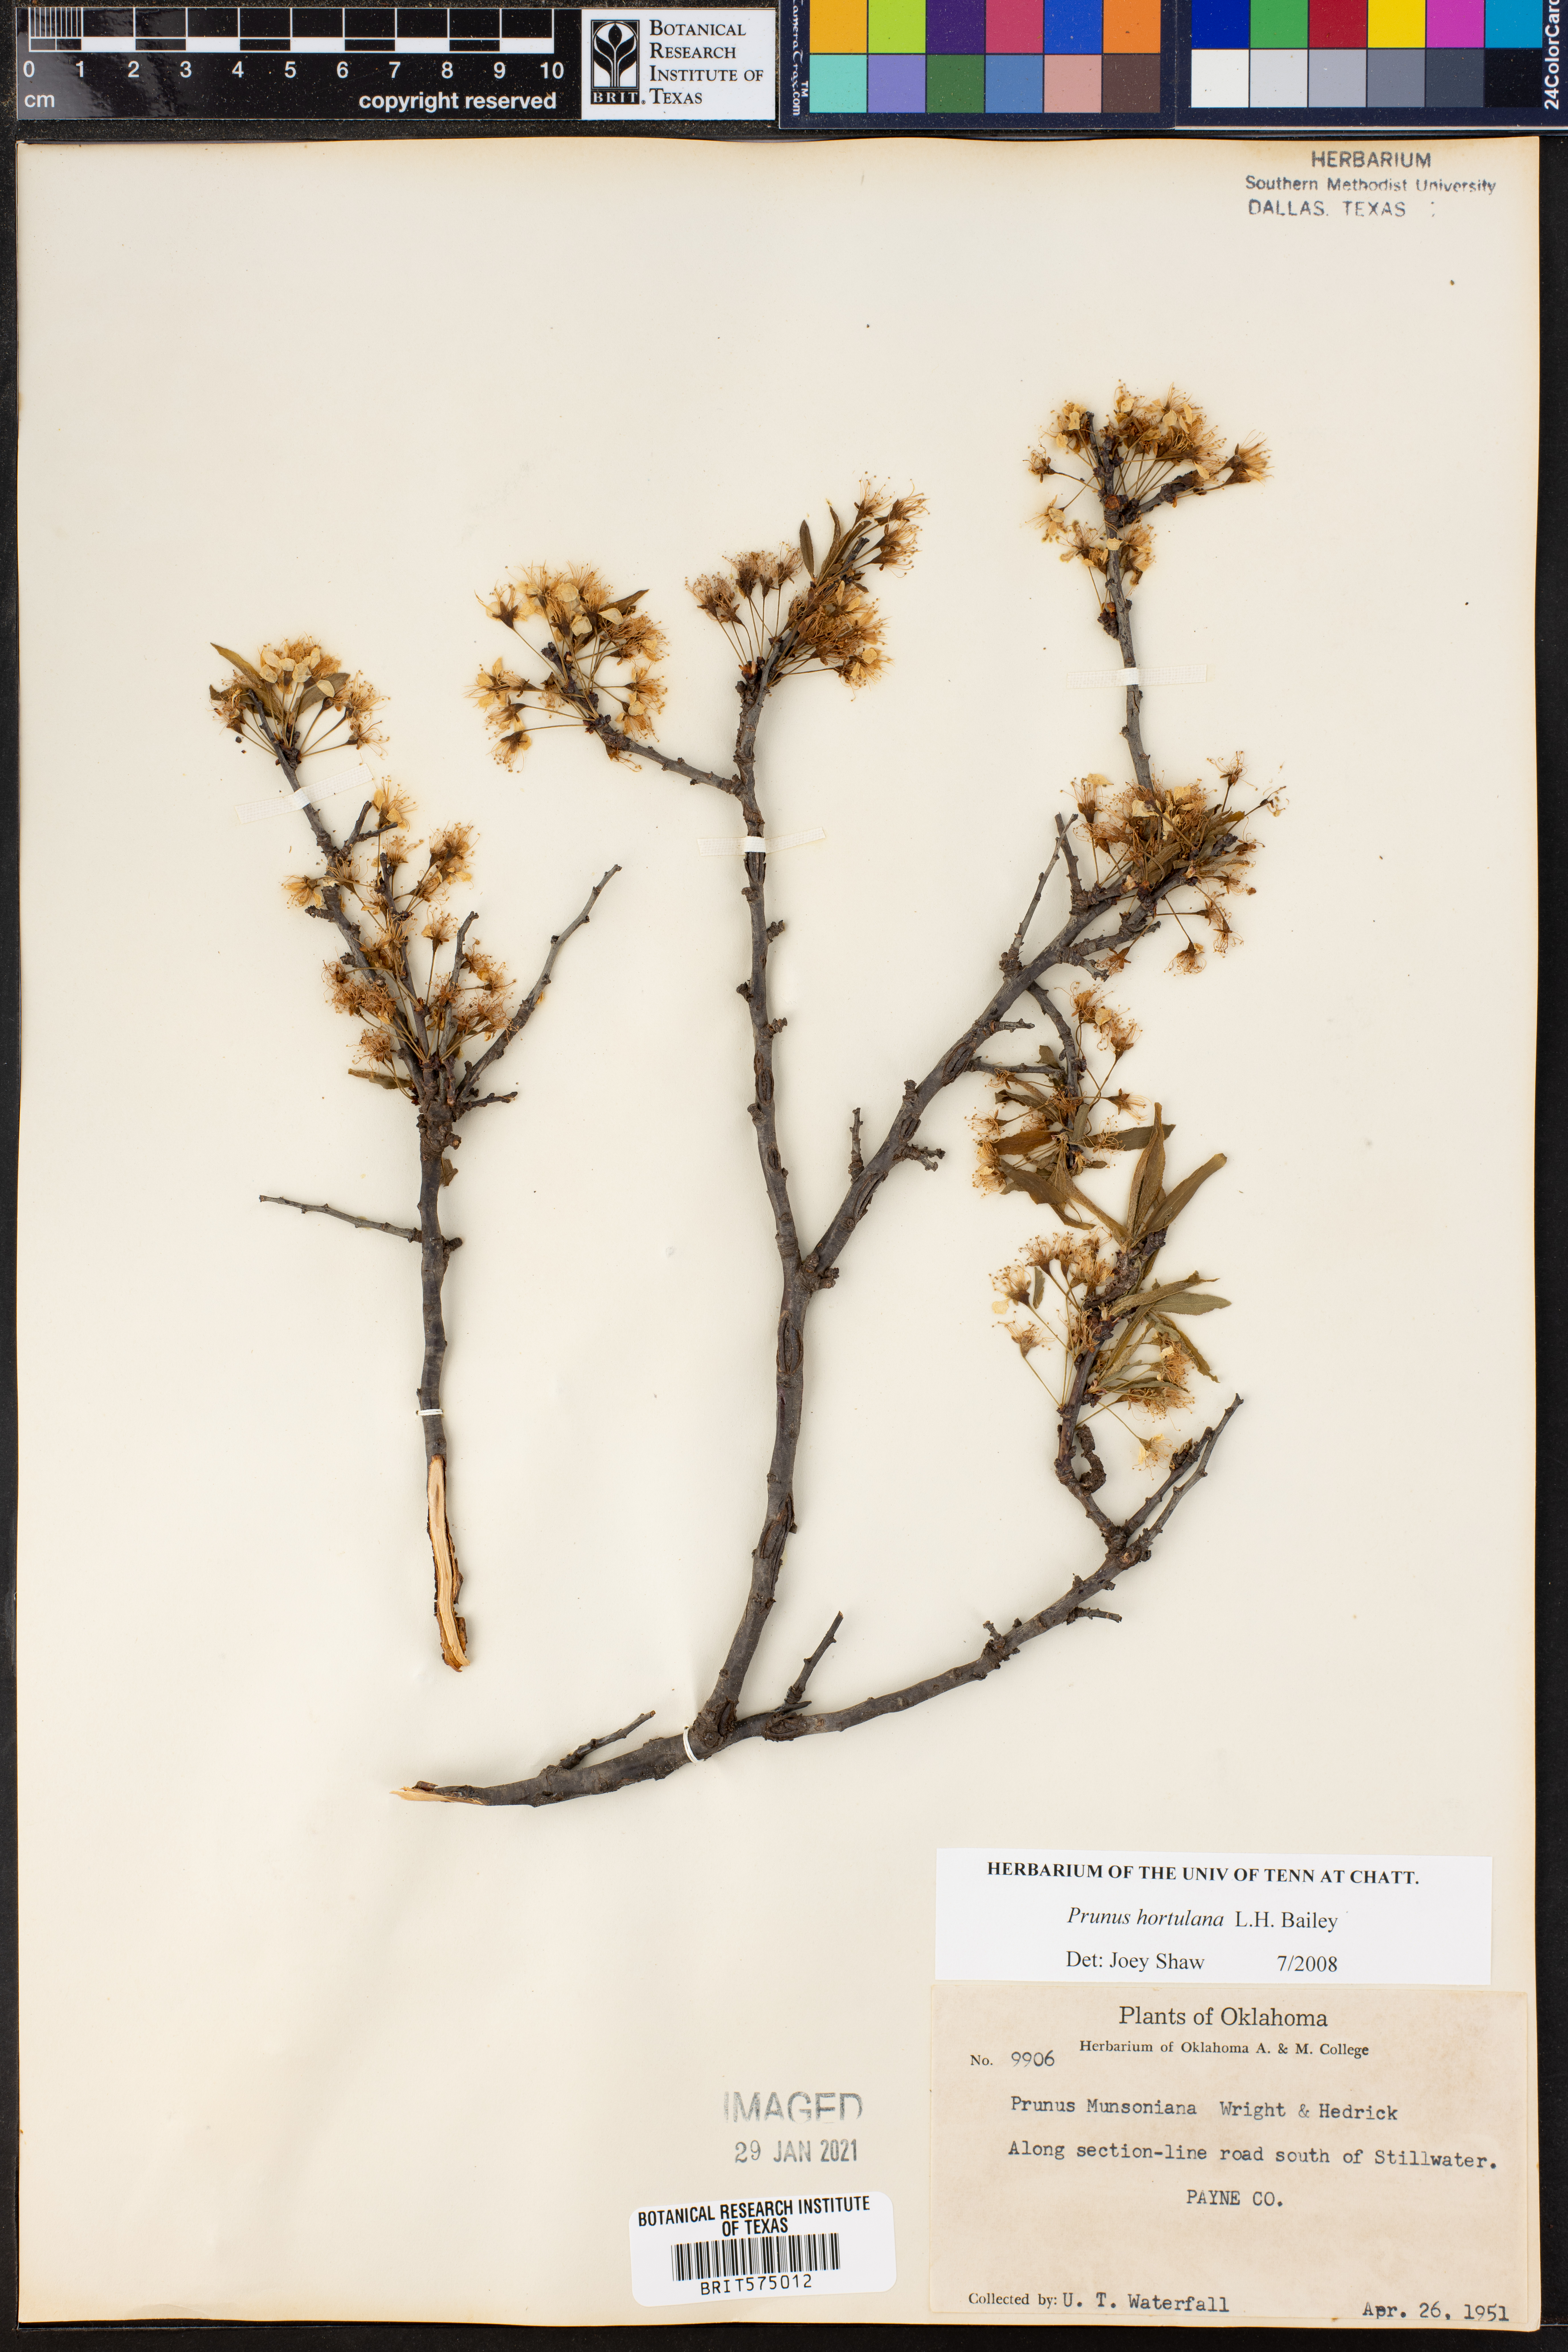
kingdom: Plantae
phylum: Tracheophyta
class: Magnoliopsida
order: Rosales
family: Rosaceae
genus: Prunus
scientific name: Prunus hortulana
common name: Hortulan plum
